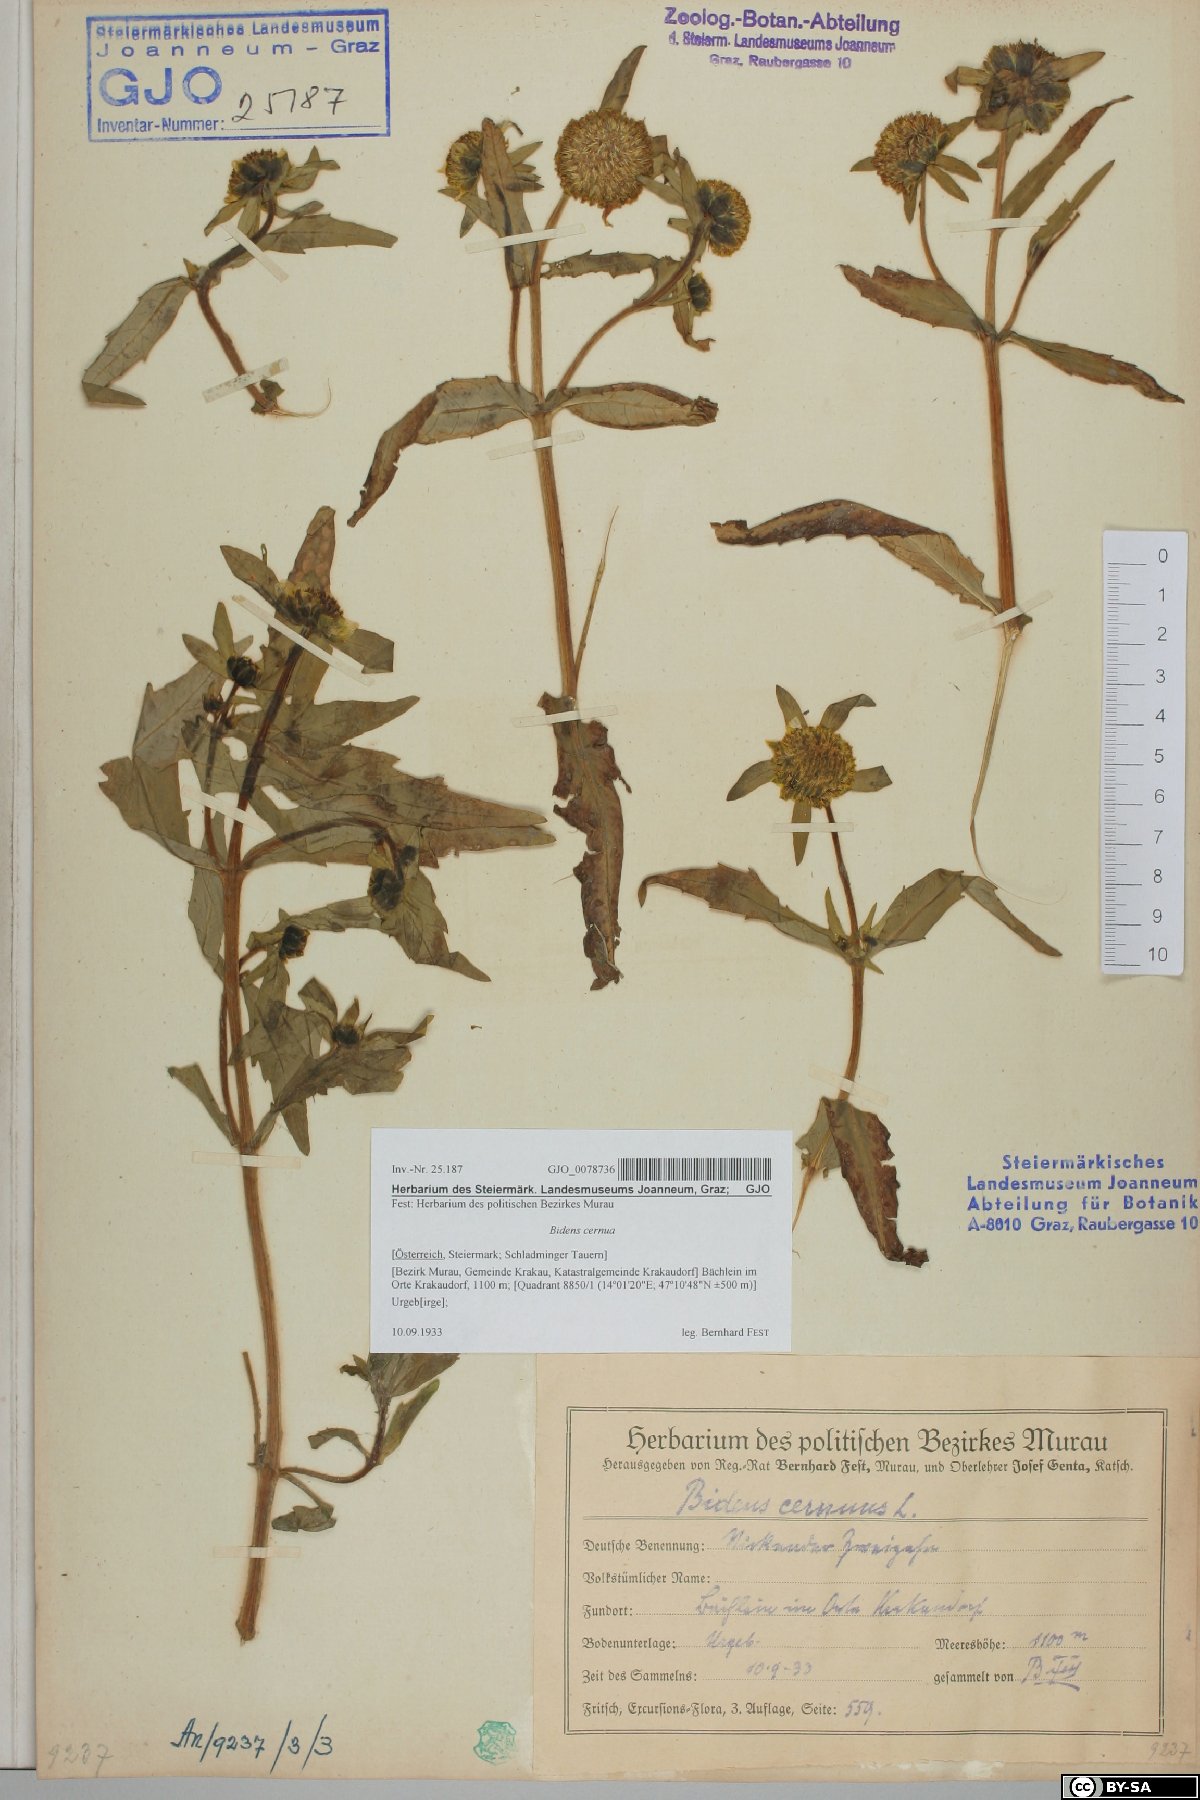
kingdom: Plantae
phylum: Tracheophyta
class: Magnoliopsida
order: Asterales
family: Asteraceae
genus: Bidens
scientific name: Bidens cernua
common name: Nodding bur-marigold
